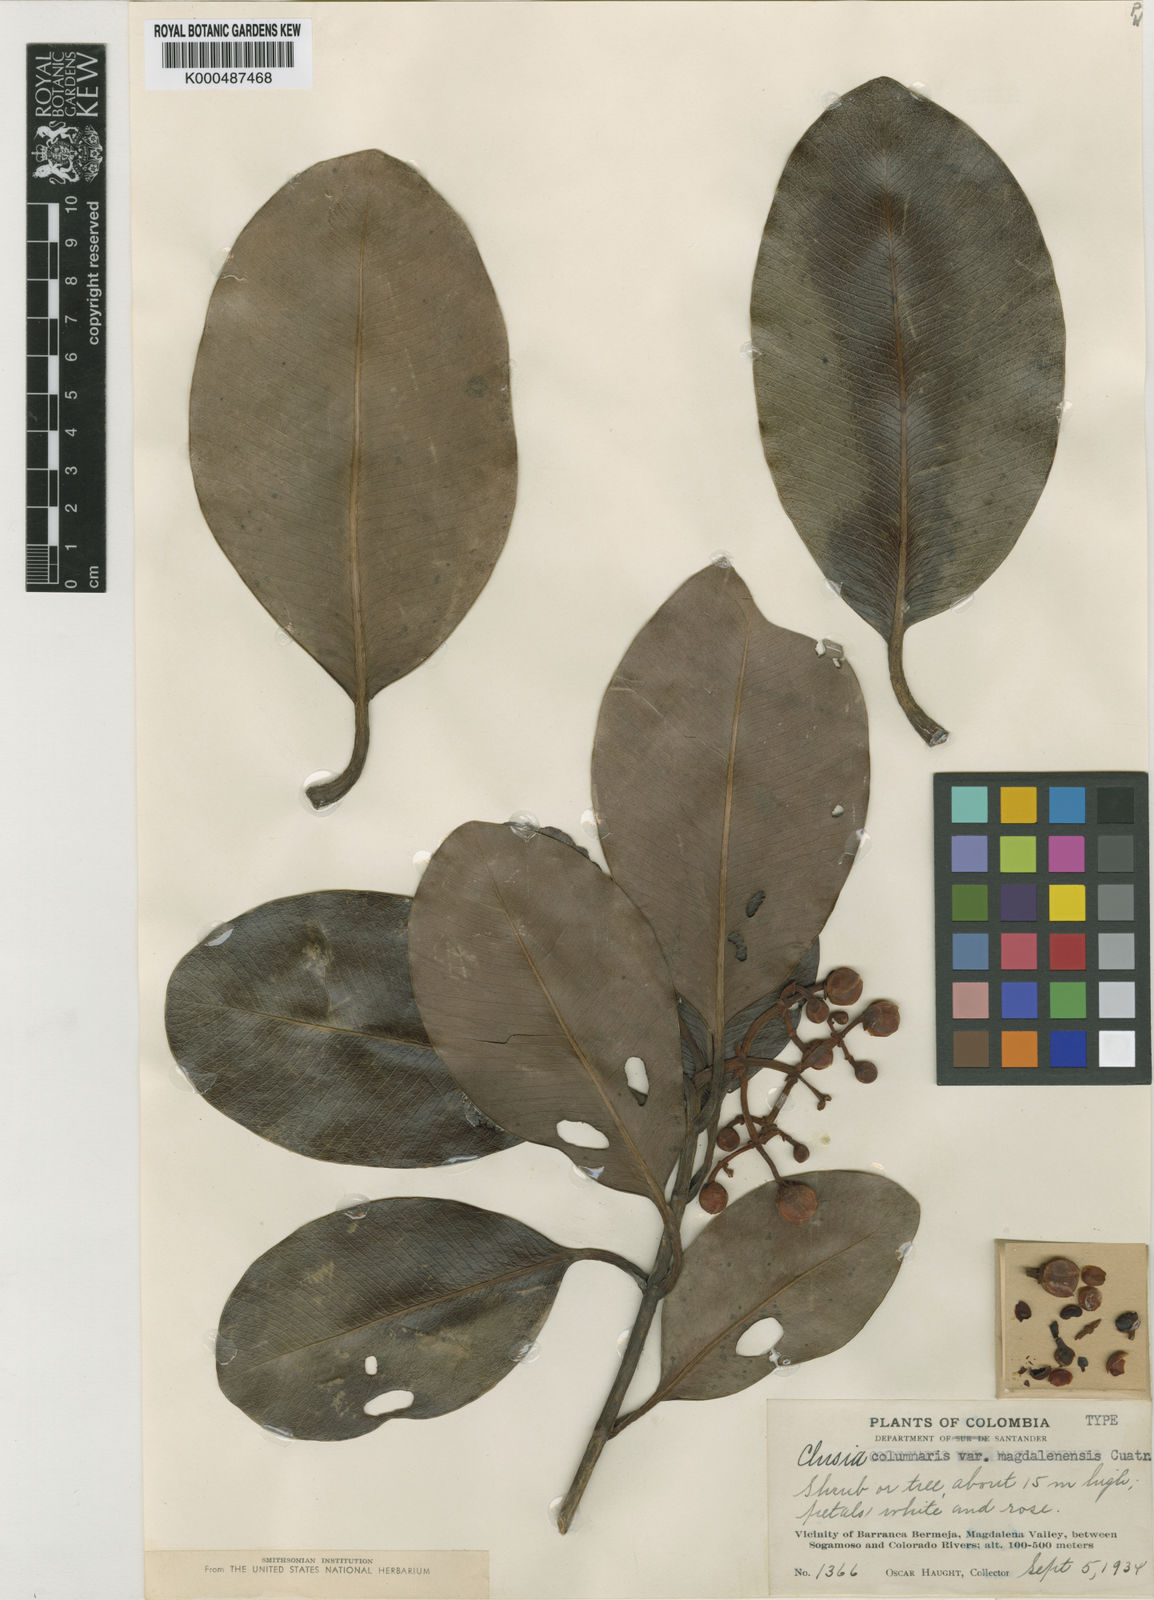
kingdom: Plantae
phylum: Tracheophyta
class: Magnoliopsida
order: Malpighiales
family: Clusiaceae
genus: Clusia
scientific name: Clusia columnaris
